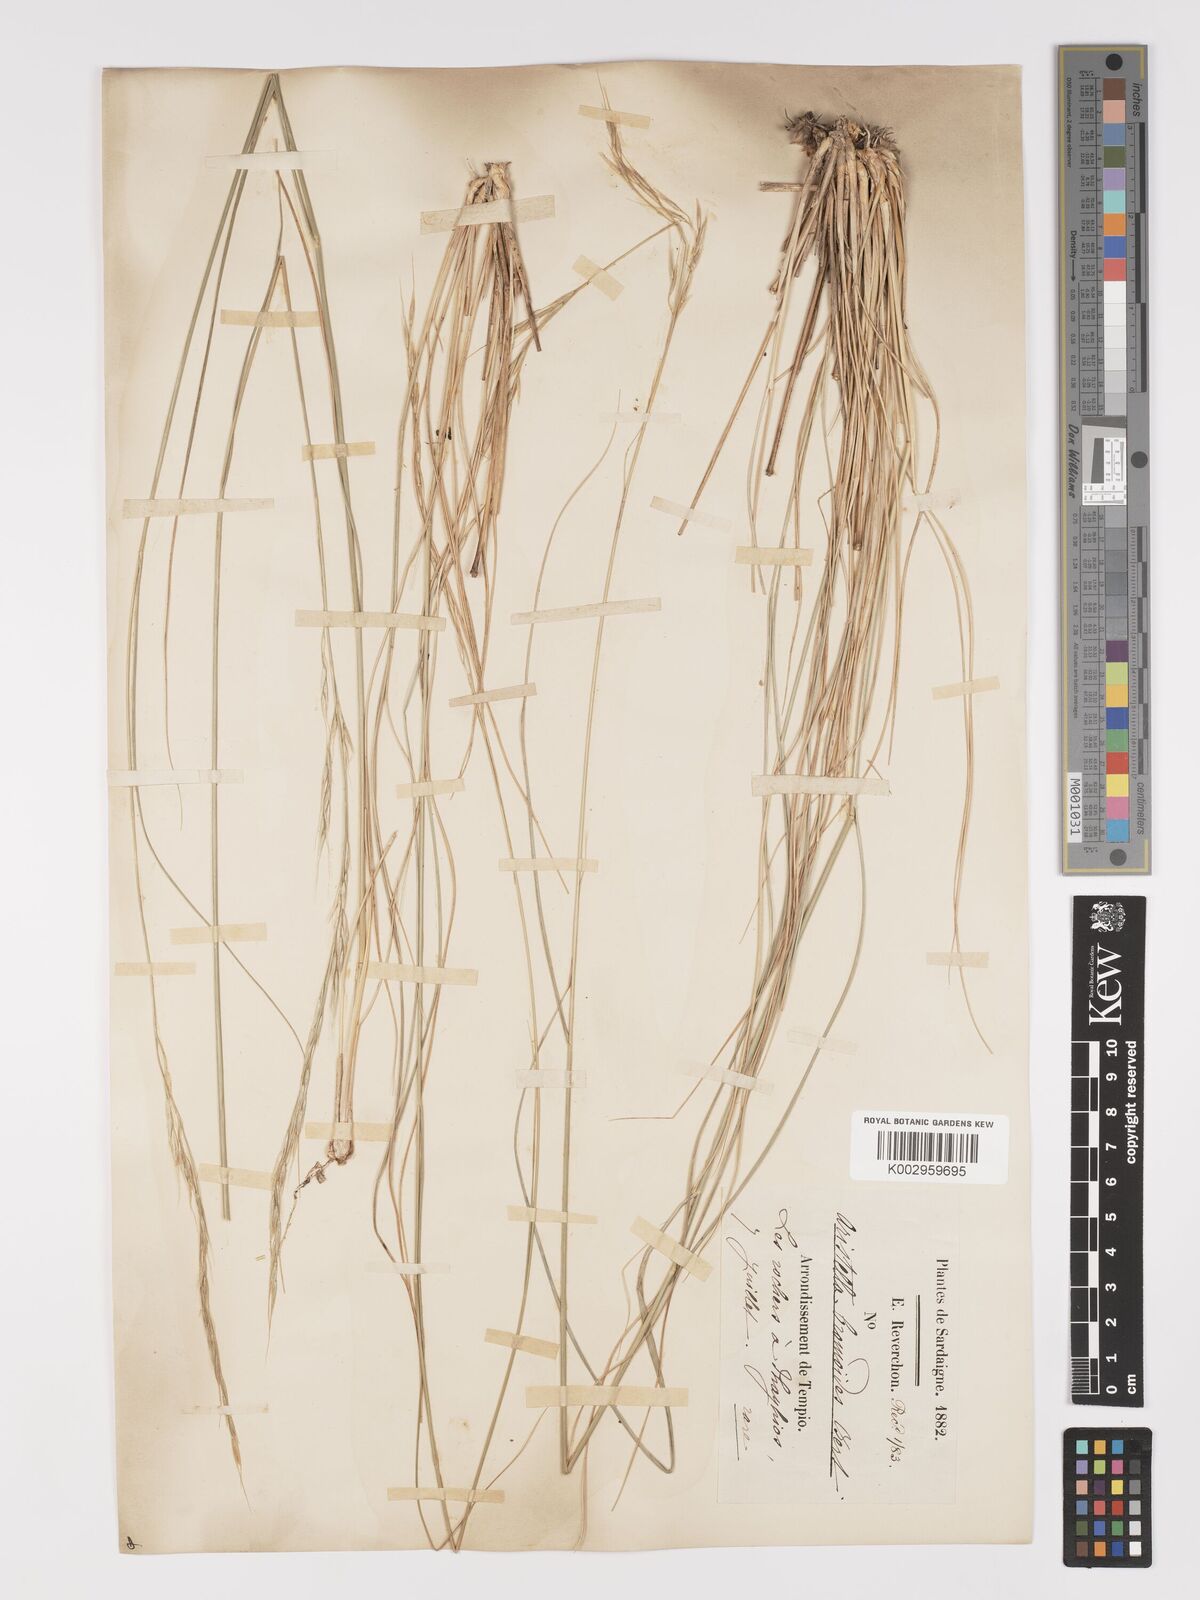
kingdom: Plantae
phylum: Tracheophyta
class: Liliopsida
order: Poales
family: Poaceae
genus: Achnatherum
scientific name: Achnatherum bromoides
